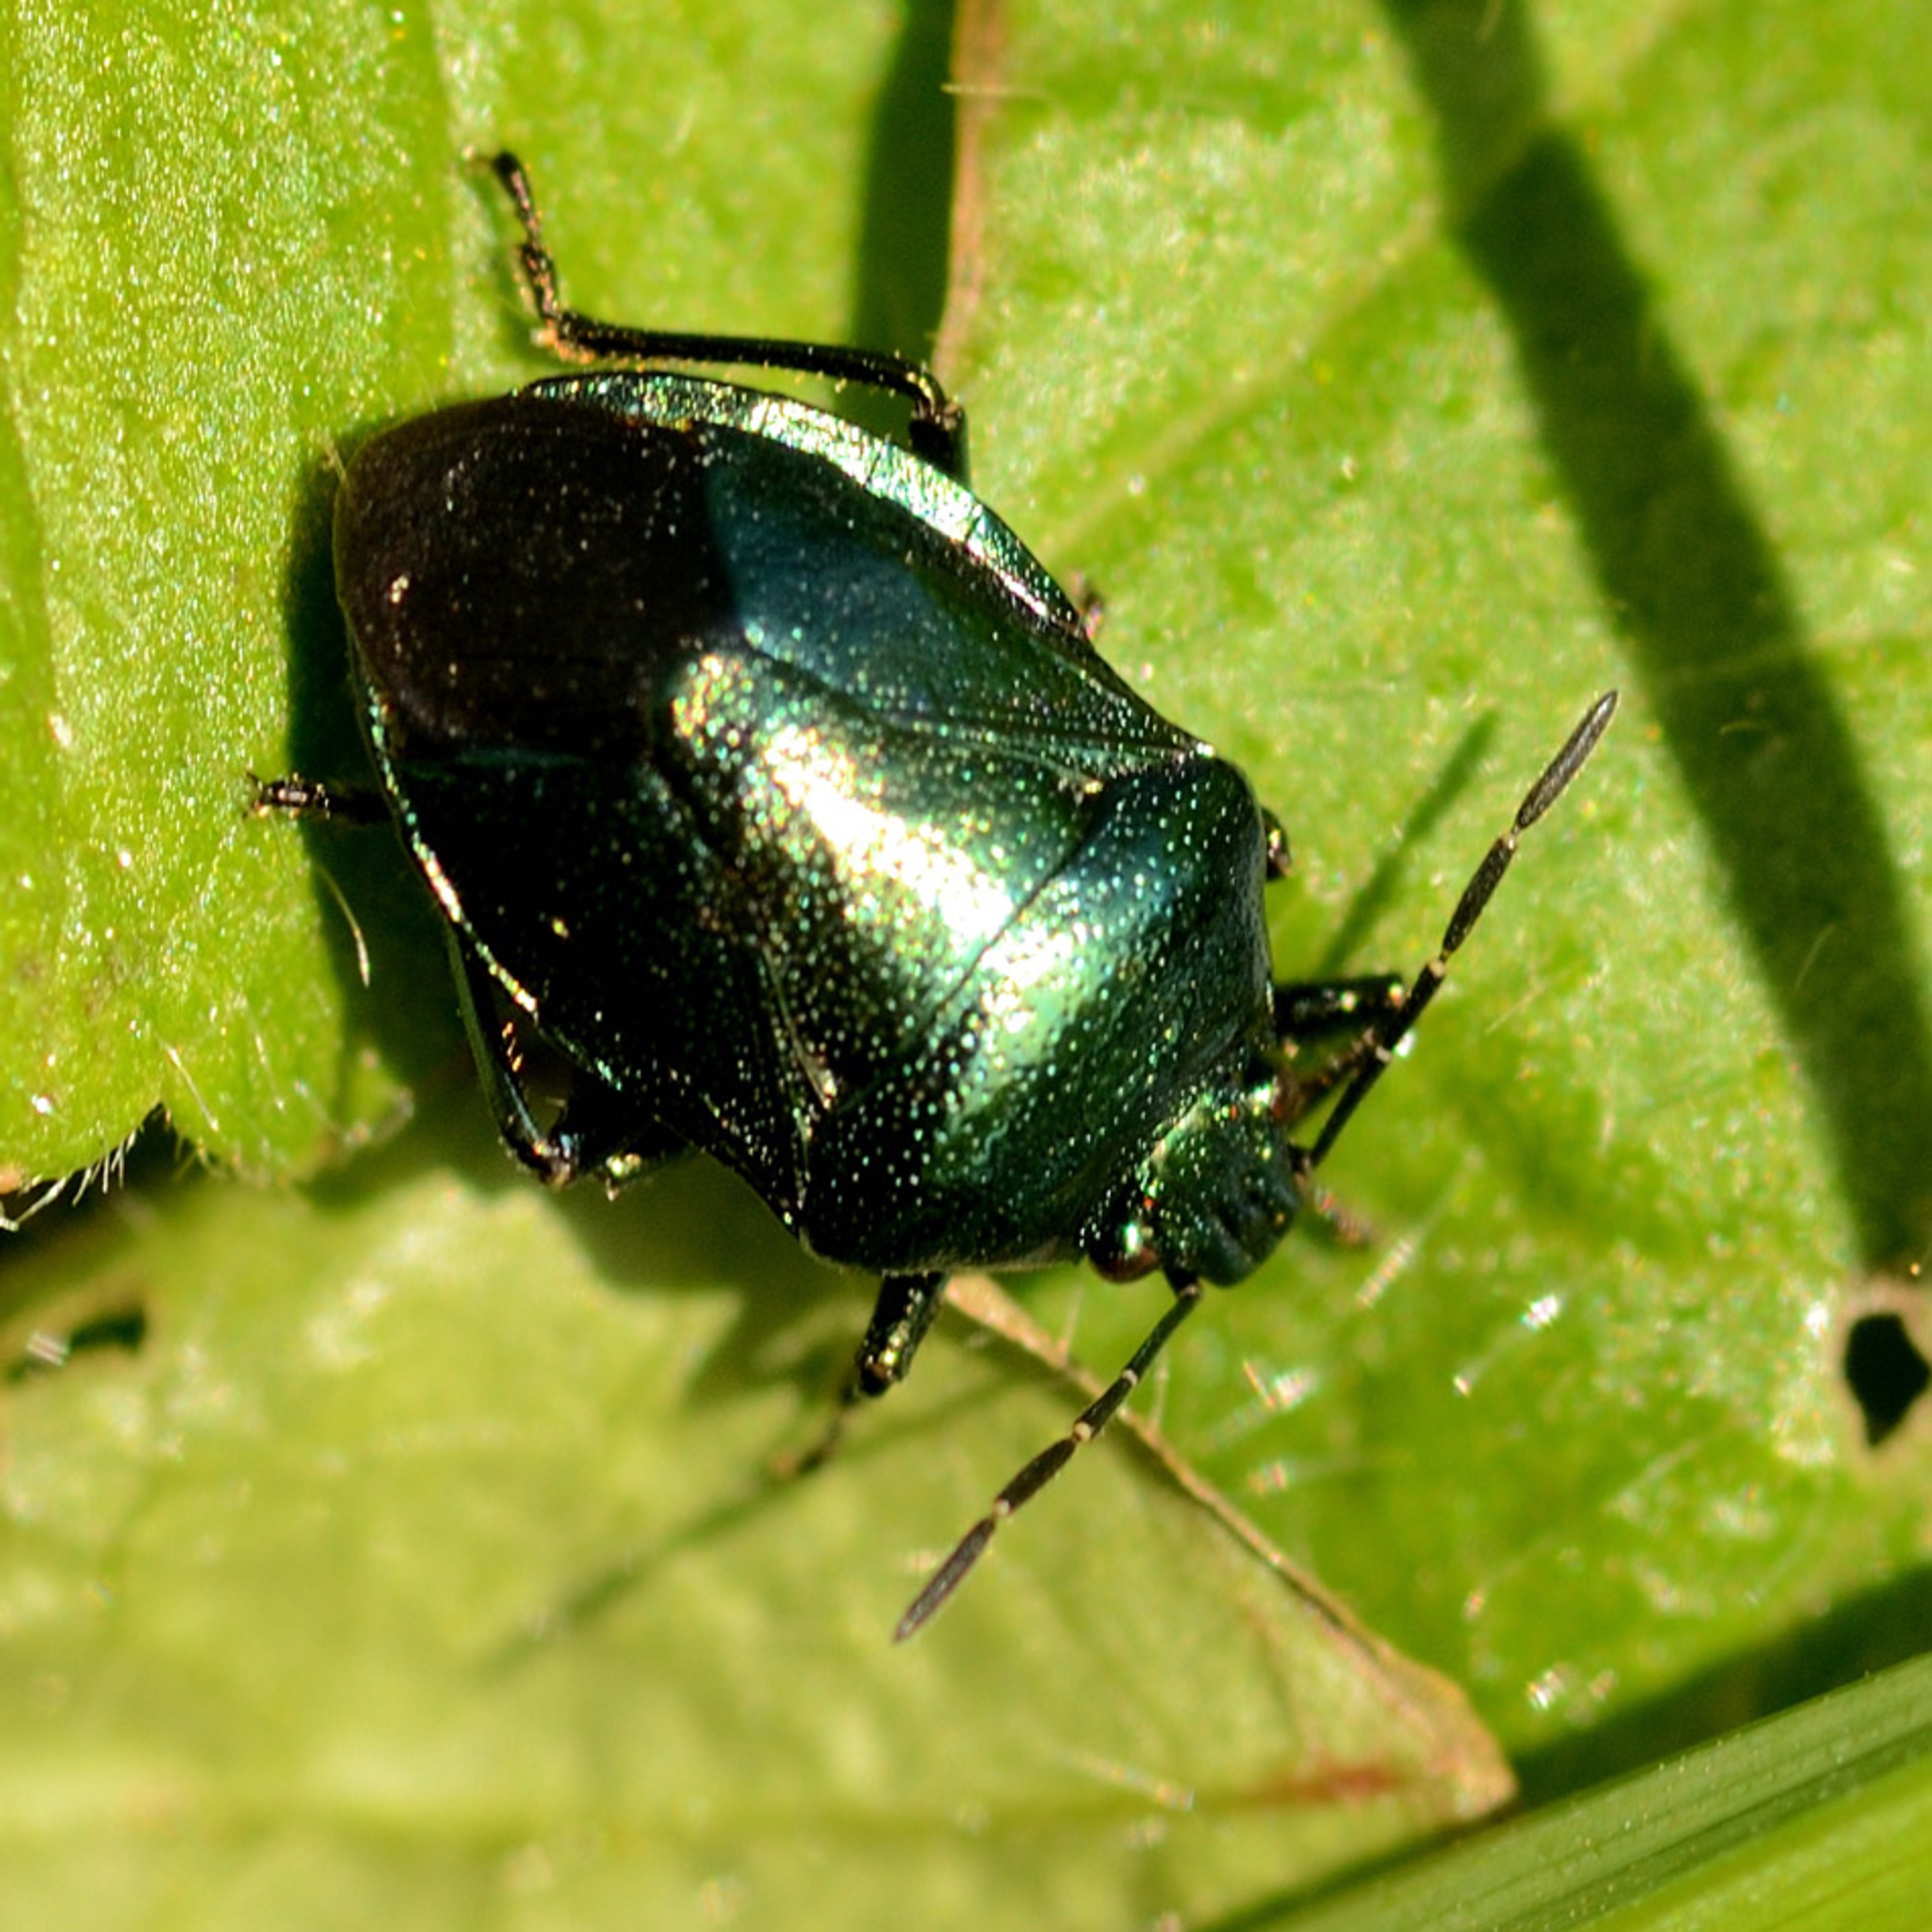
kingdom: Animalia
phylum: Arthropoda
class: Insecta
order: Hemiptera
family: Pentatomidae
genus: Zicrona
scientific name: Zicrona caerulea
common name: Blå bredtæge
